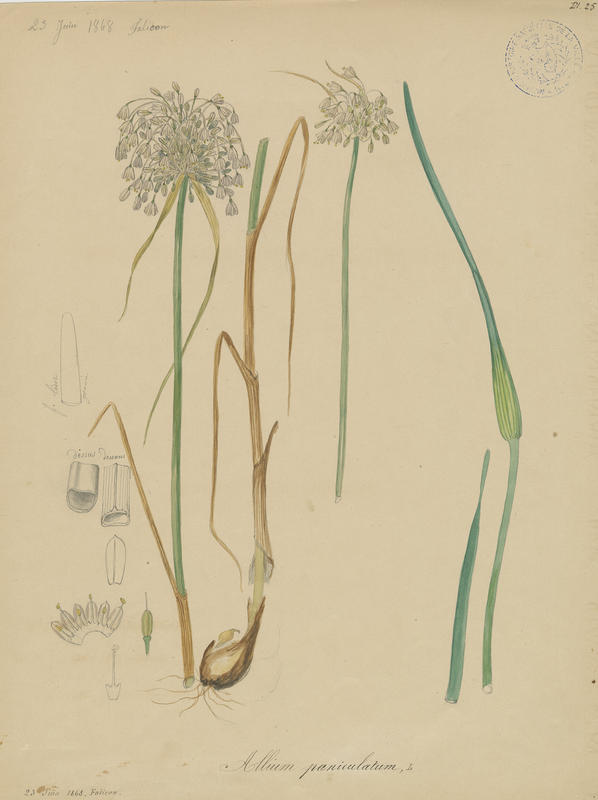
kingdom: Plantae
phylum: Tracheophyta
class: Liliopsida
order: Asparagales
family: Amaryllidaceae
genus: Allium
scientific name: Allium paniculatum
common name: Pale garlic
